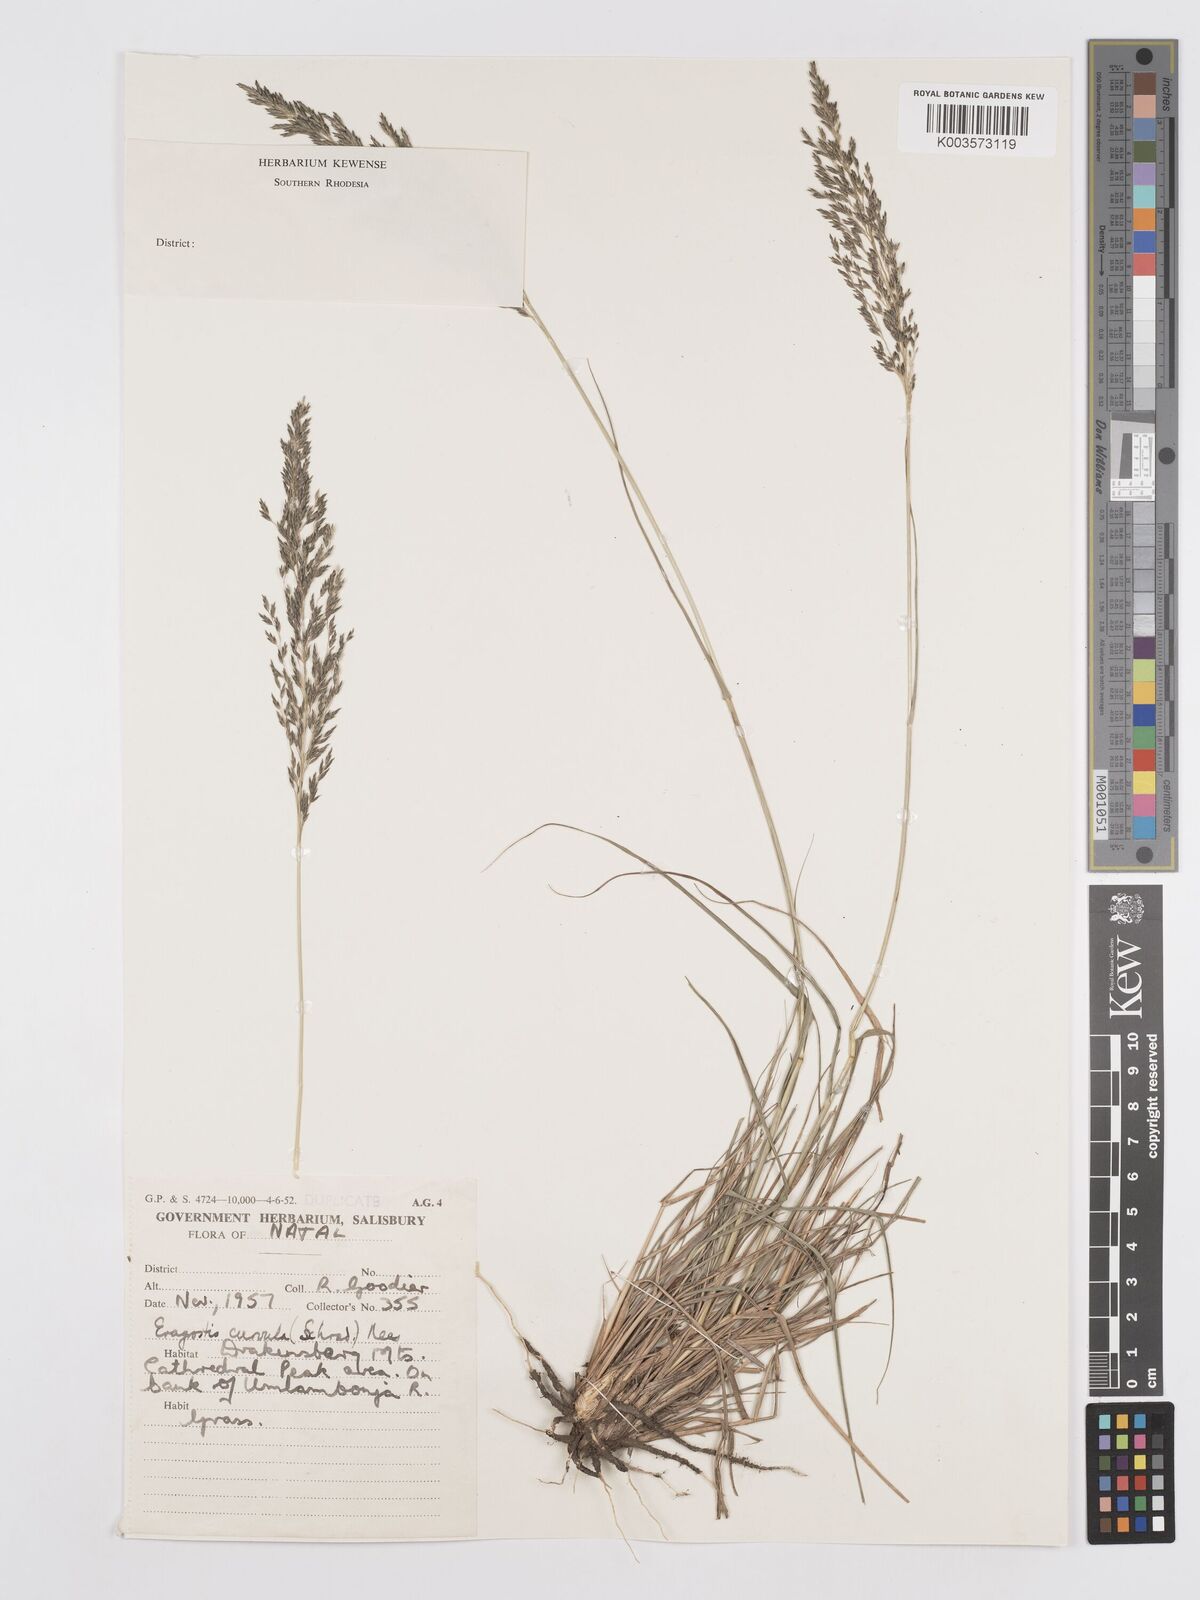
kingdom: Plantae
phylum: Tracheophyta
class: Liliopsida
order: Poales
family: Poaceae
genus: Eragrostis
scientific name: Eragrostis curvula
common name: African love-grass
